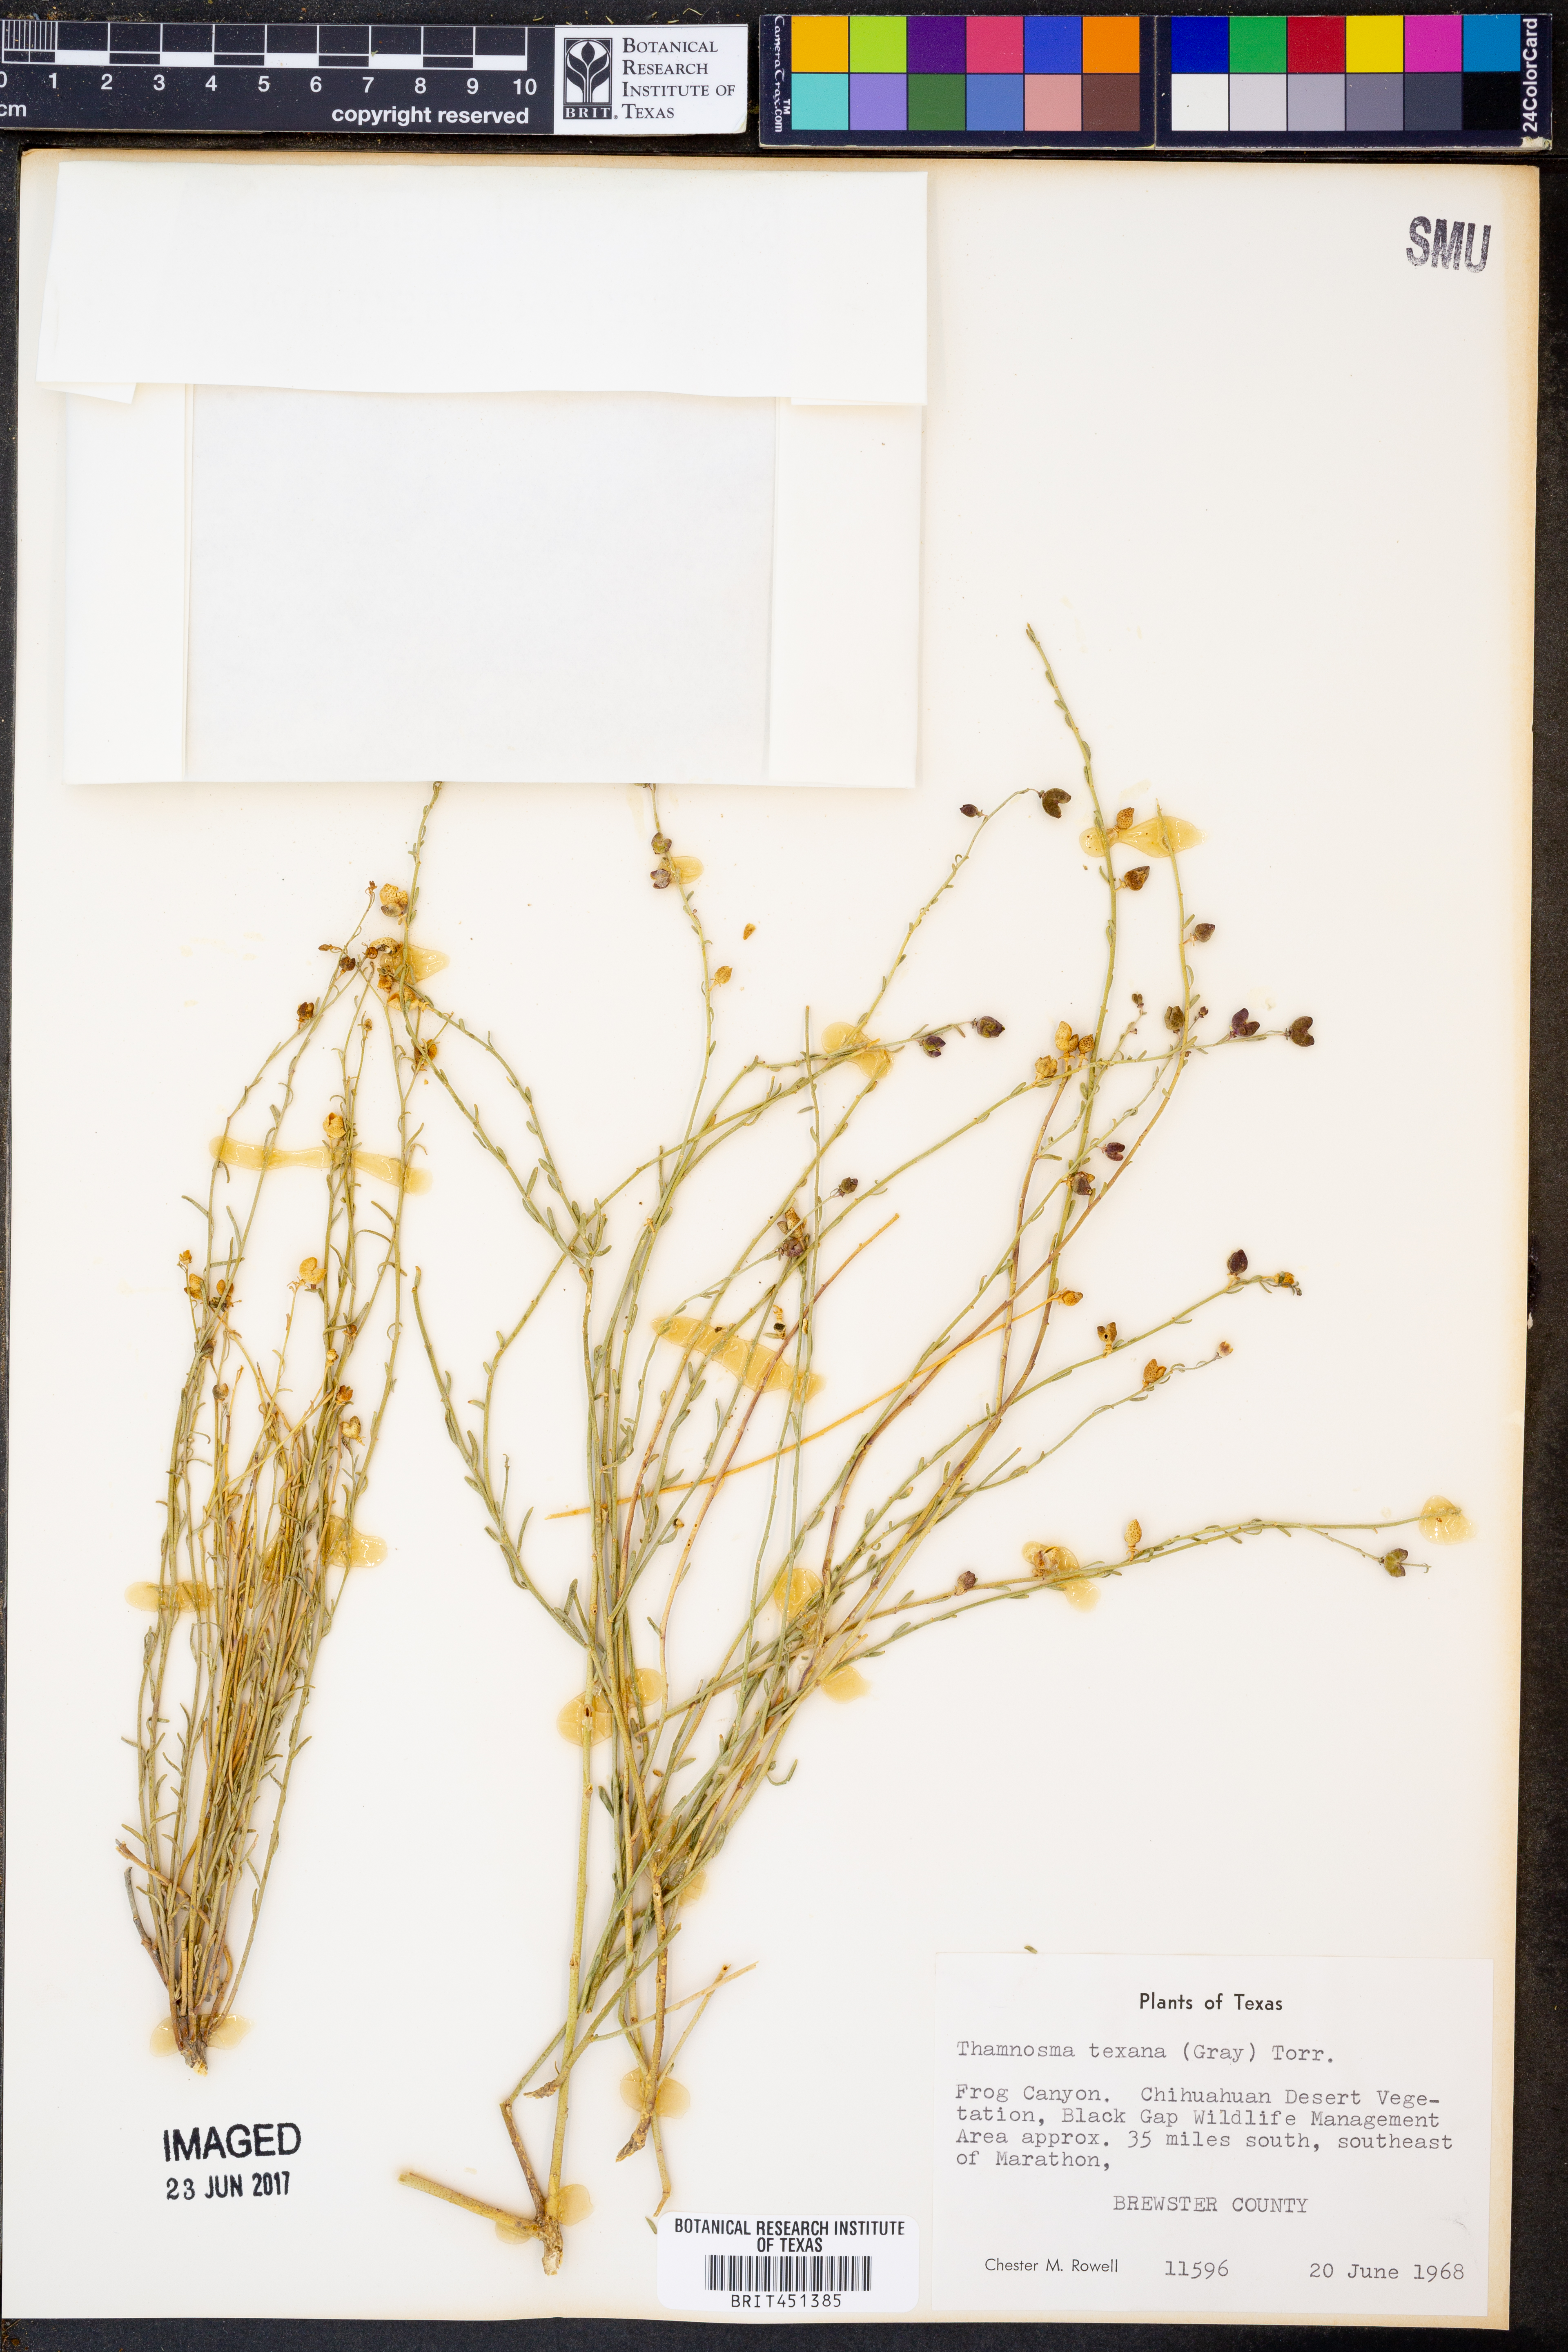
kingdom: Plantae
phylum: Tracheophyta
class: Magnoliopsida
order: Sapindales
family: Rutaceae
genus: Thamnosma
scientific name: Thamnosma texana
